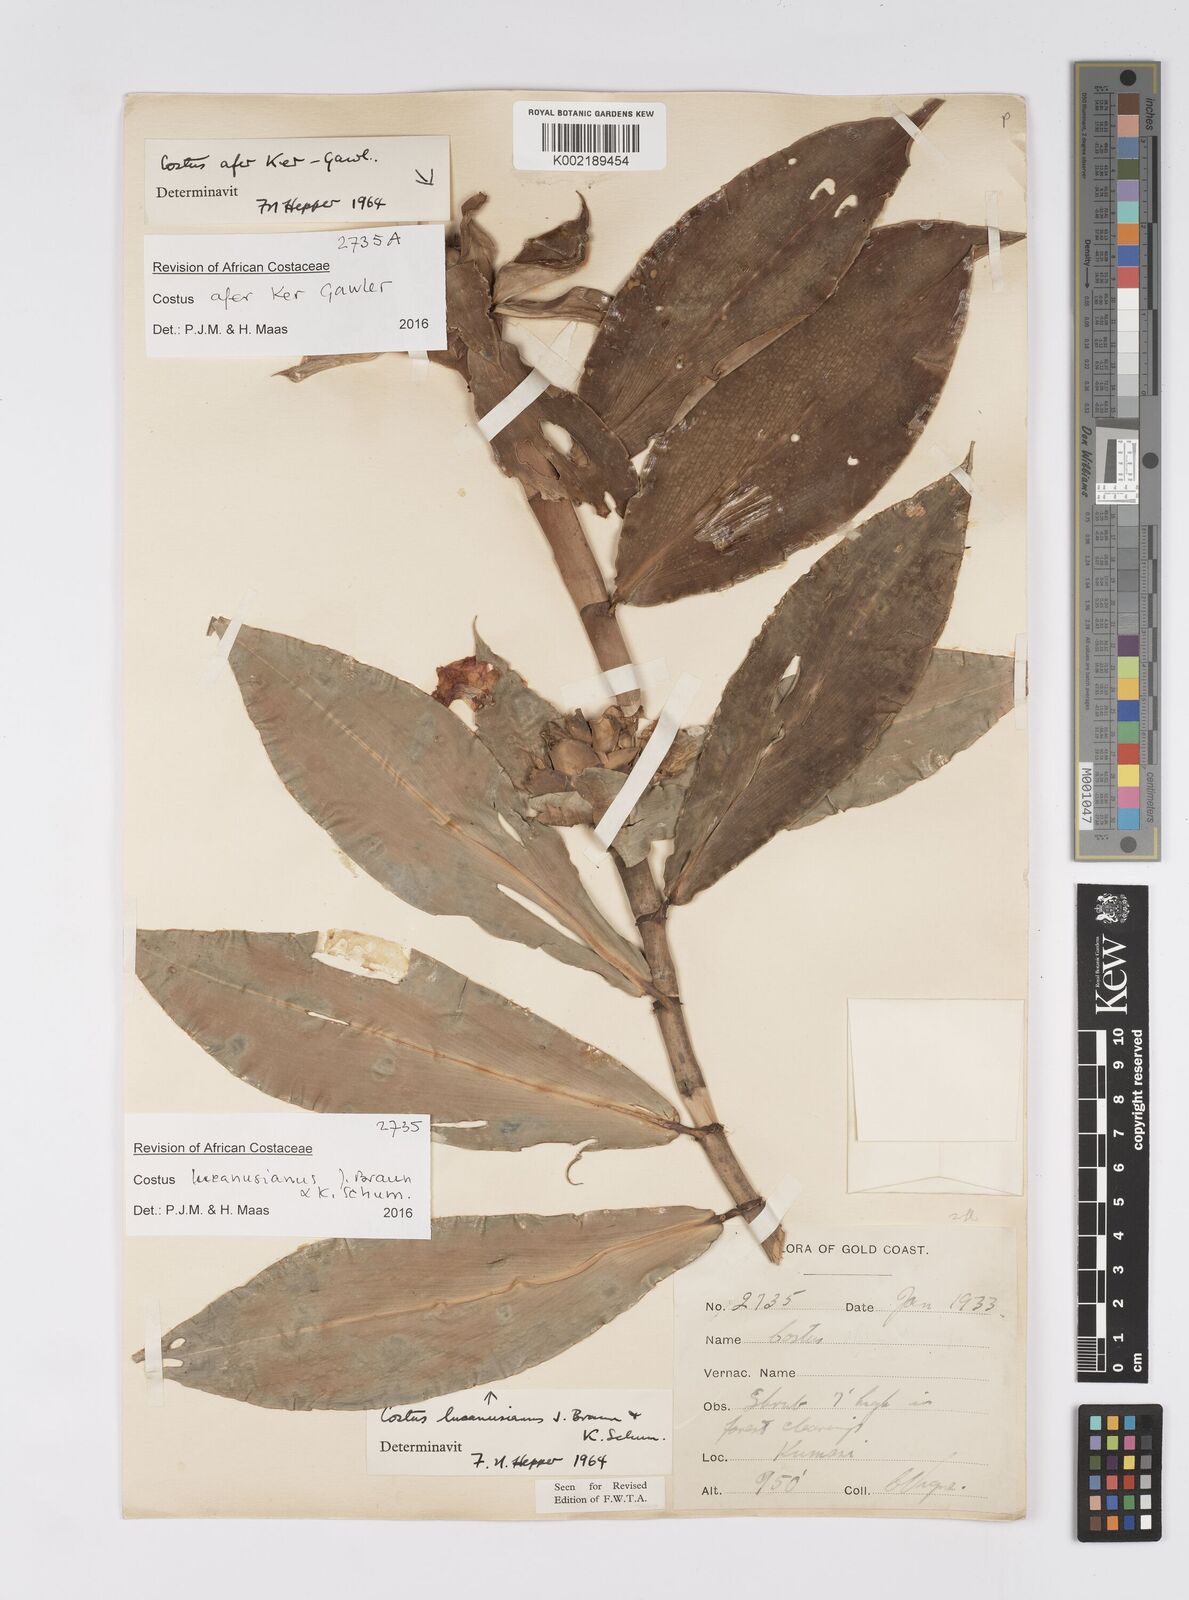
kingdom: Plantae
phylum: Tracheophyta
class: Liliopsida
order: Zingiberales
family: Costaceae
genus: Costus
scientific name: Costus lucanusianus
